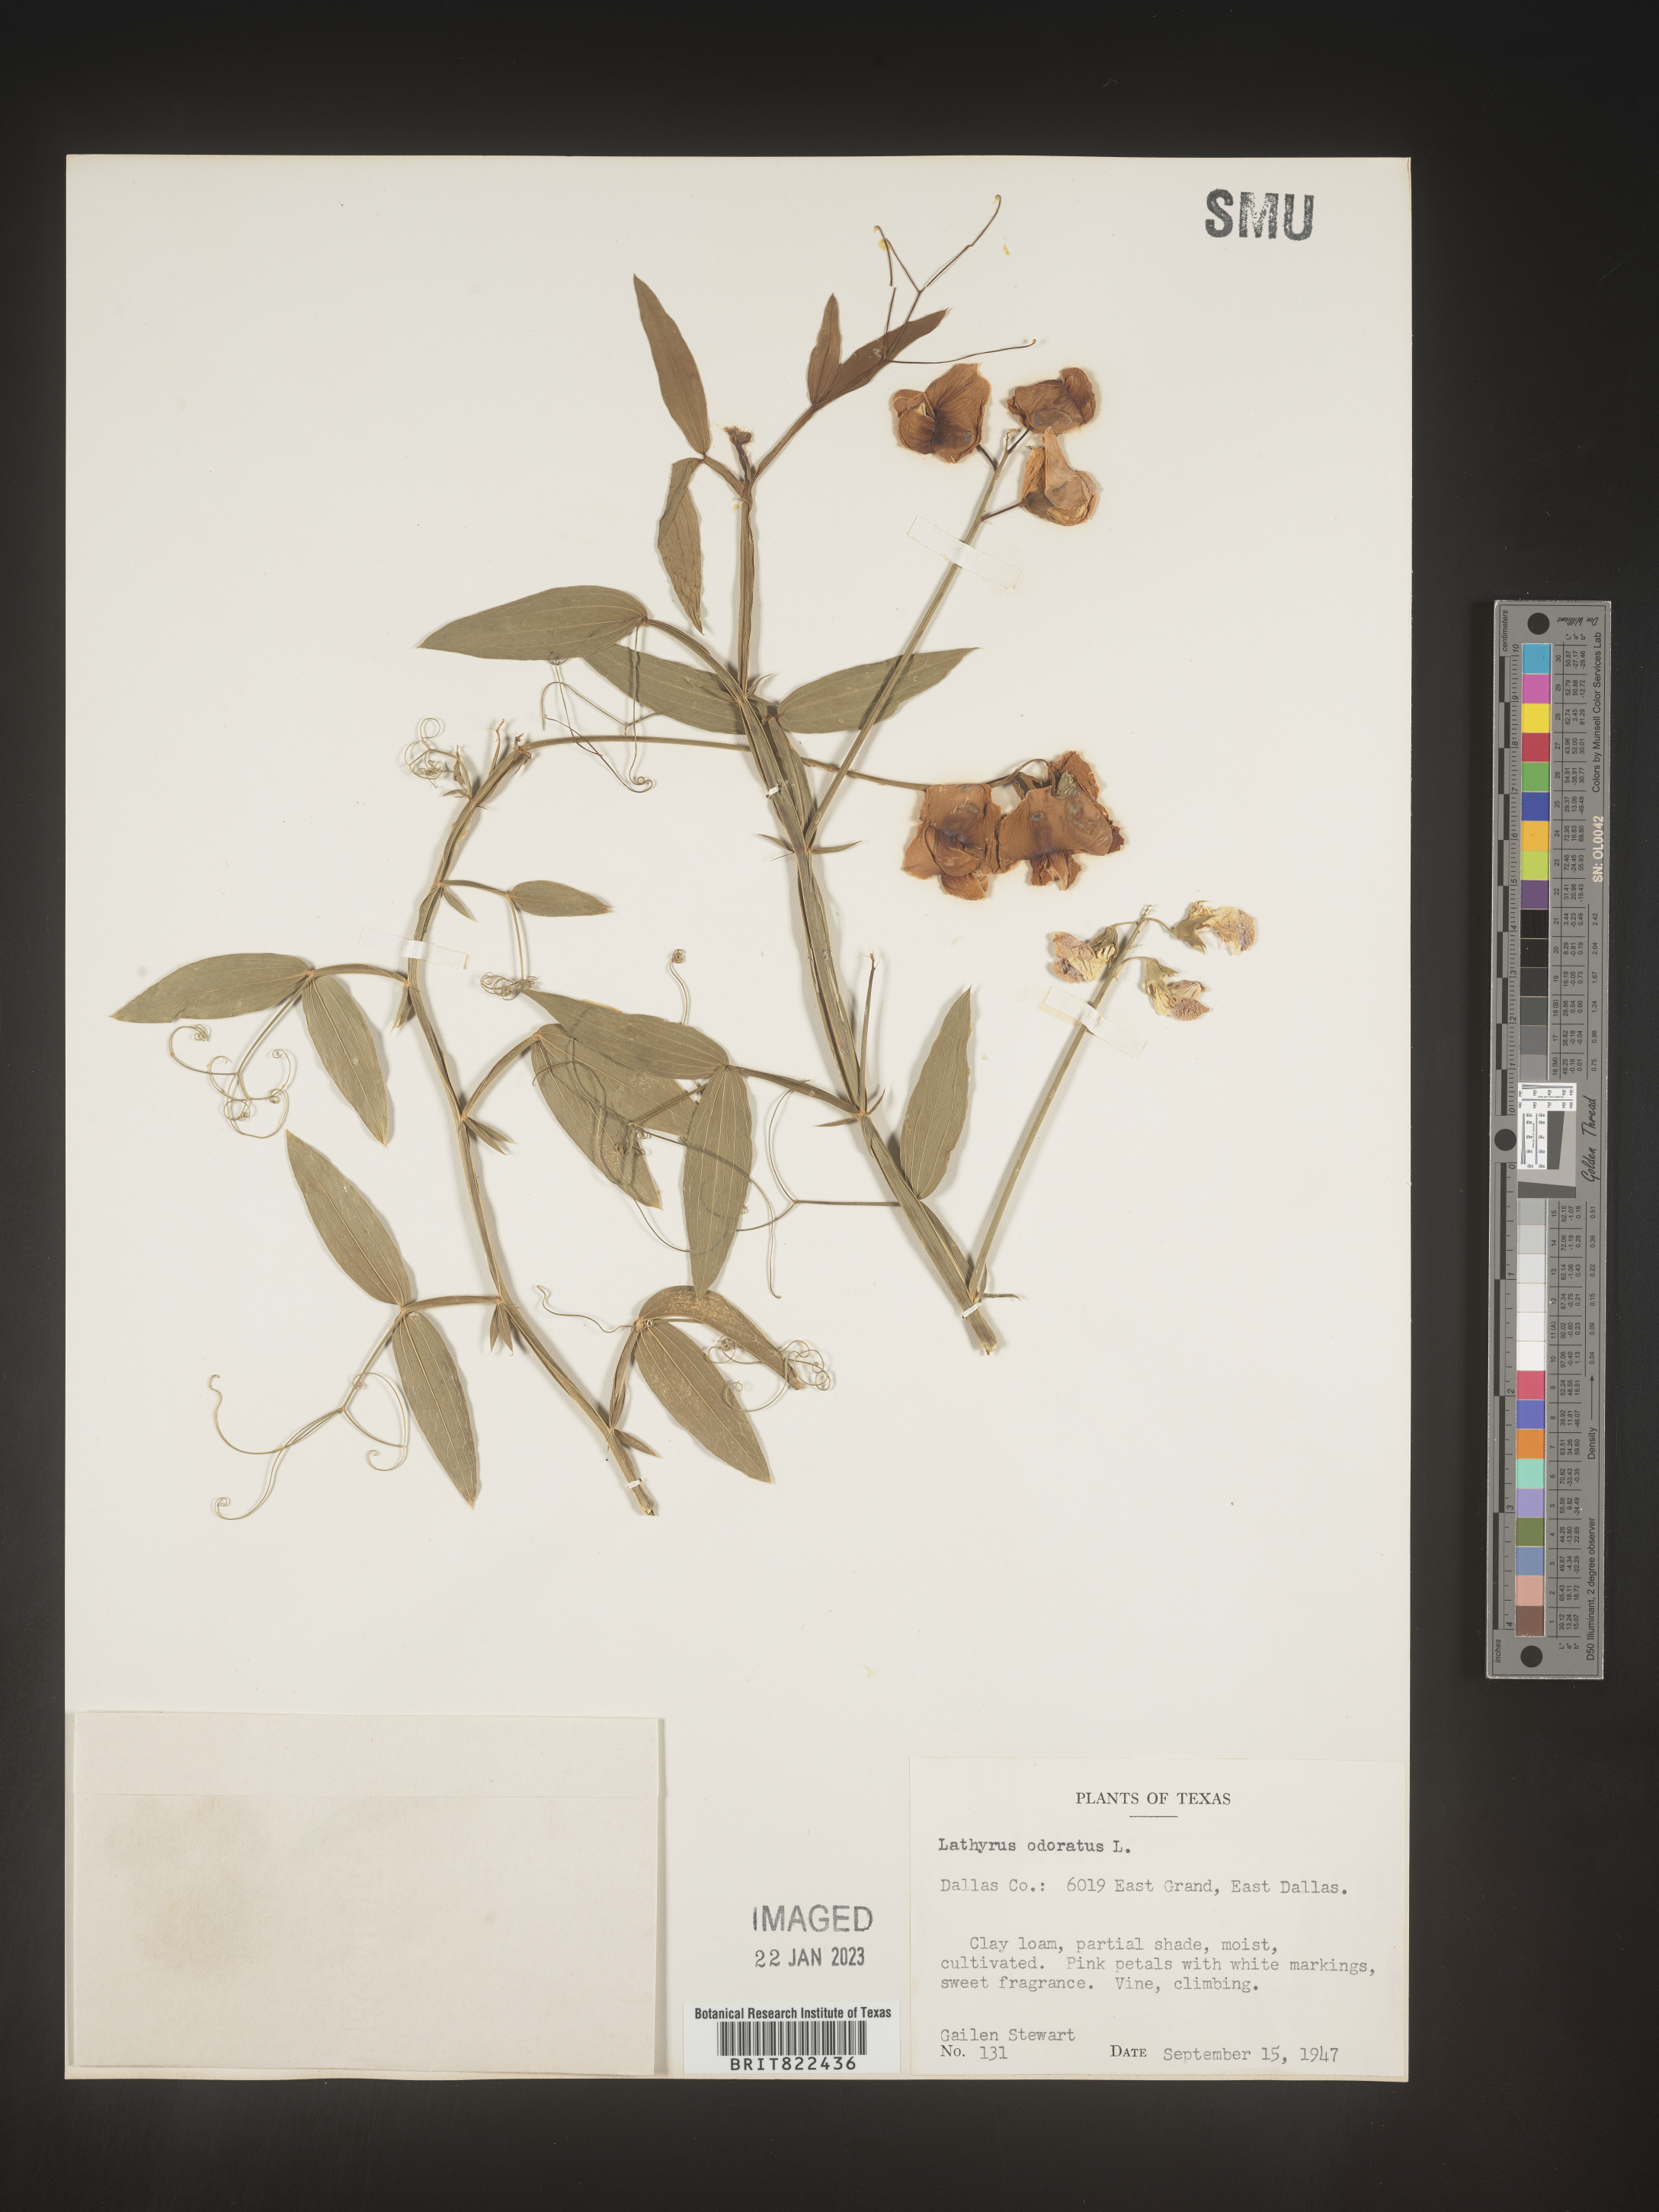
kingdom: Plantae
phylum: Tracheophyta
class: Magnoliopsida
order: Fabales
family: Fabaceae
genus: Lathyrus
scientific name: Lathyrus
